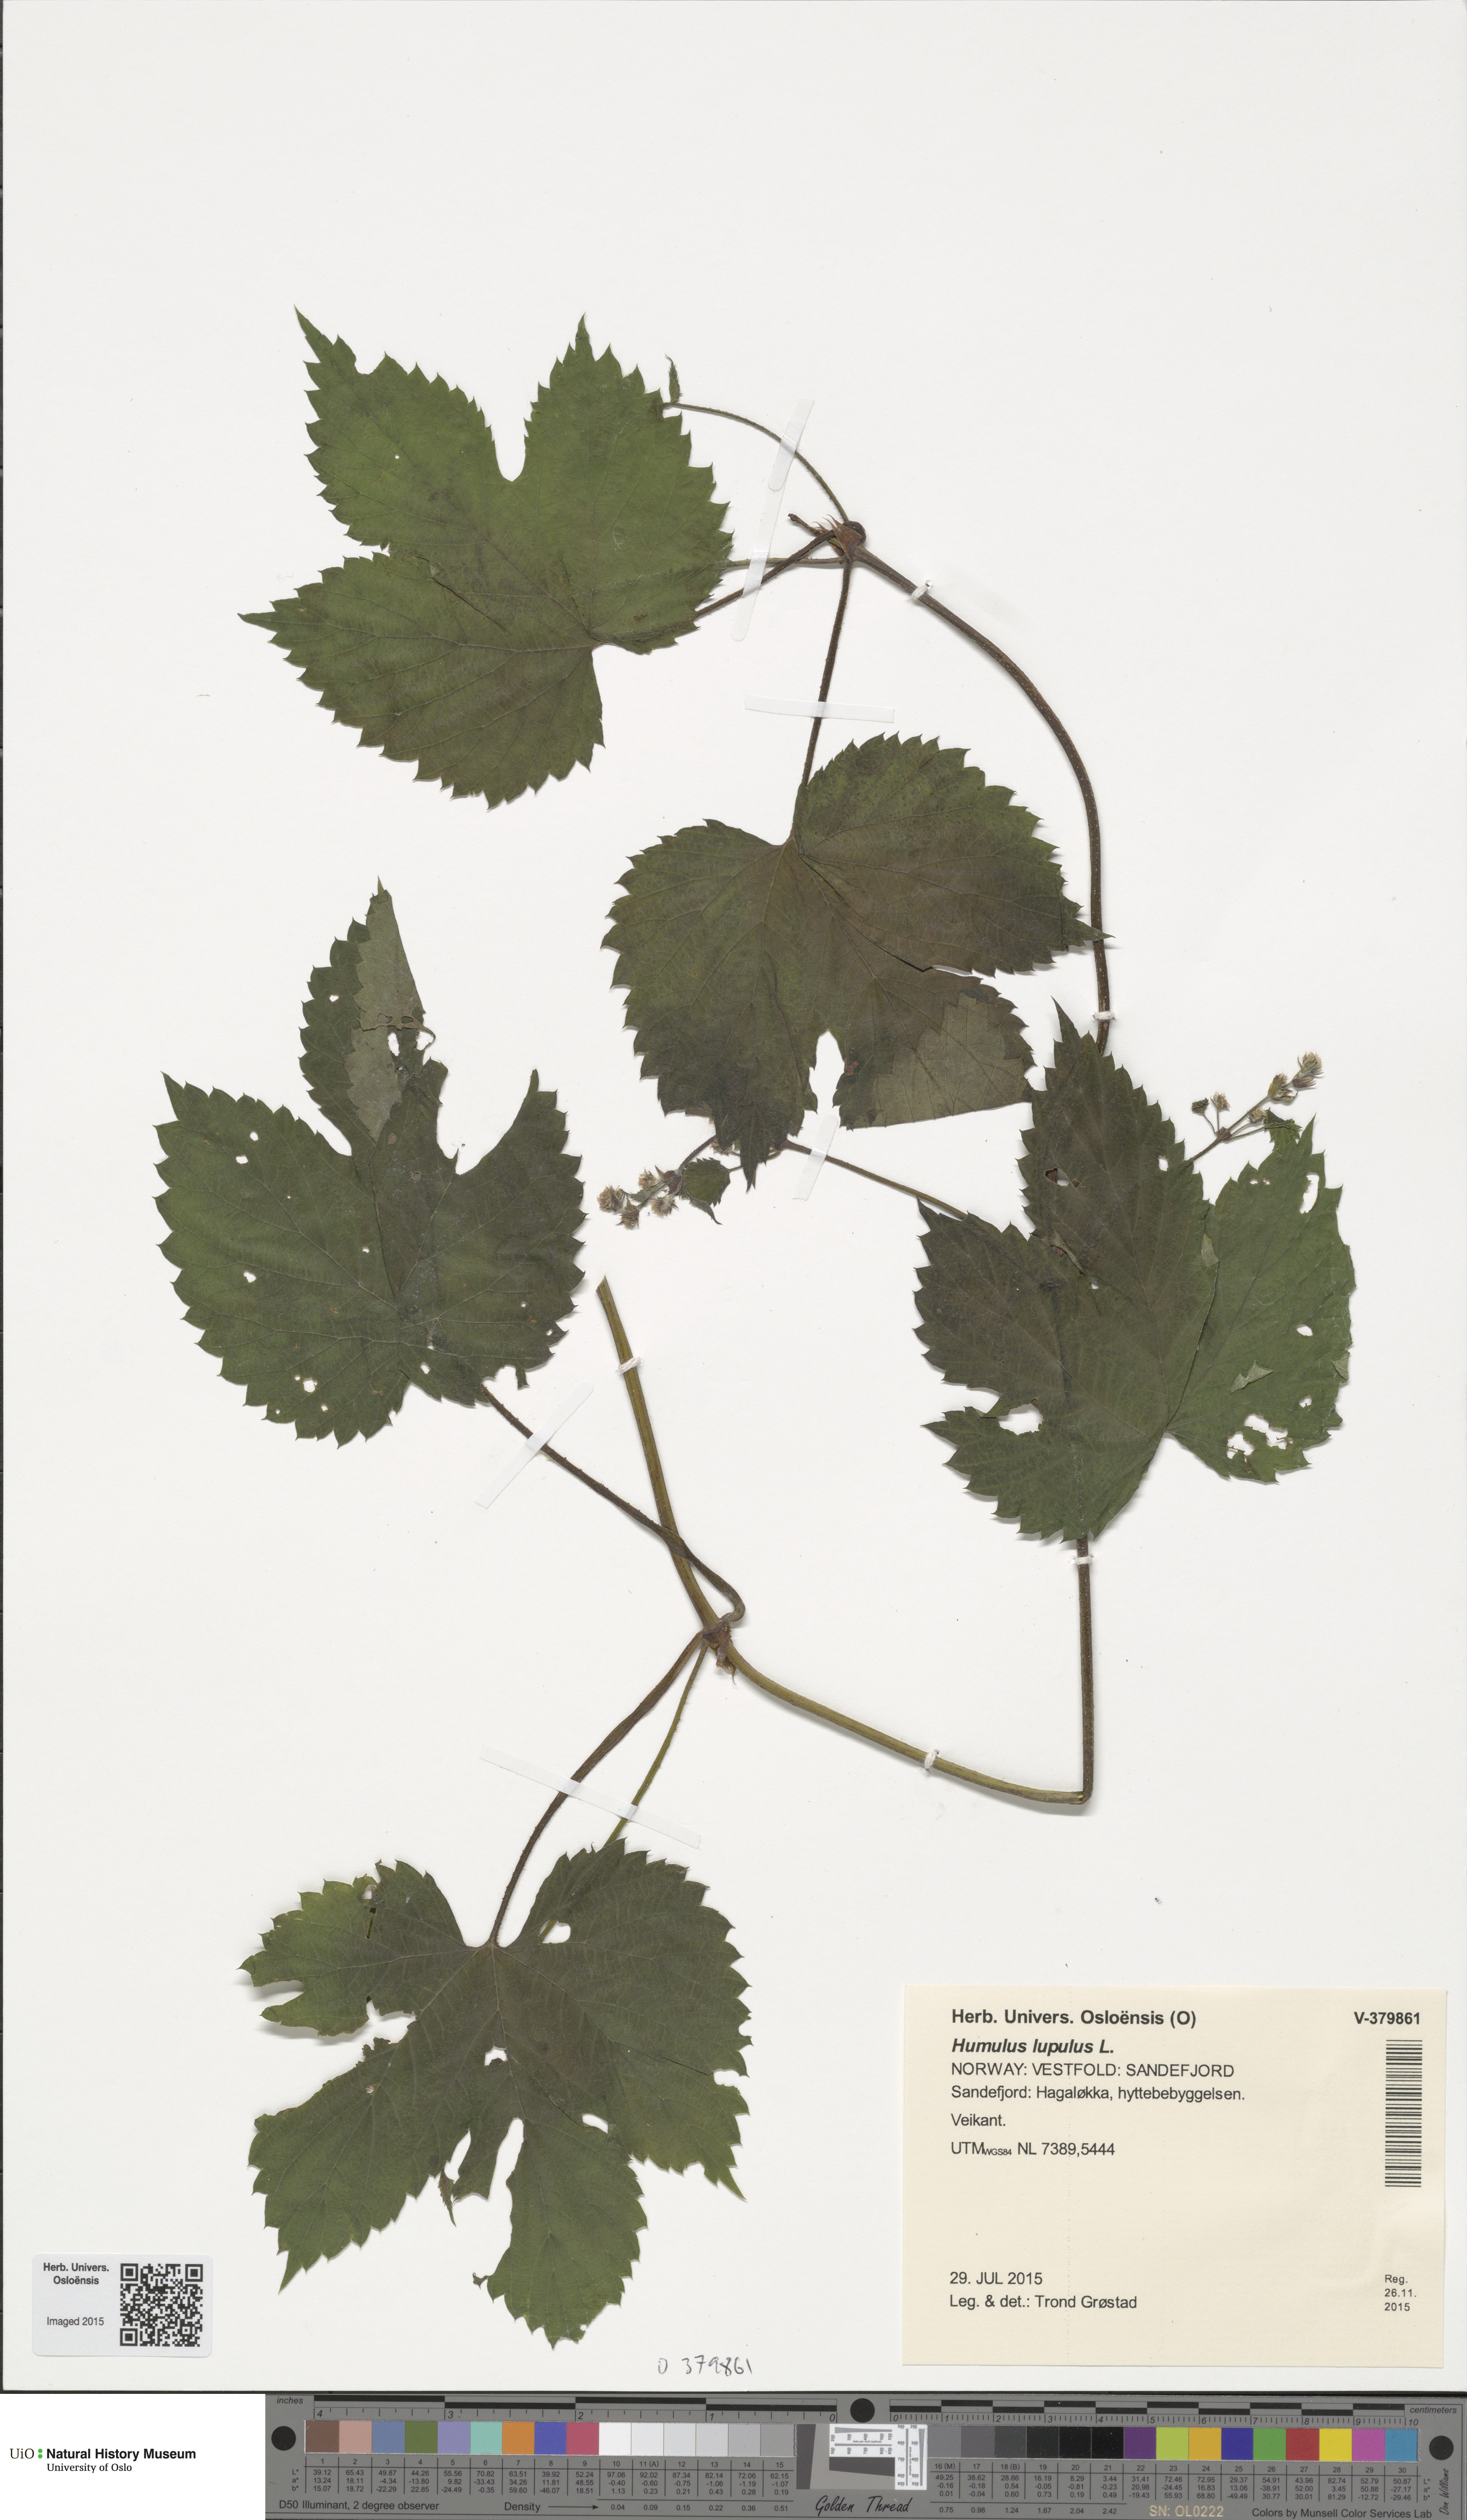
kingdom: Plantae
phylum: Tracheophyta
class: Magnoliopsida
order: Rosales
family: Cannabaceae
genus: Humulus
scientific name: Humulus lupulus
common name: Hop
